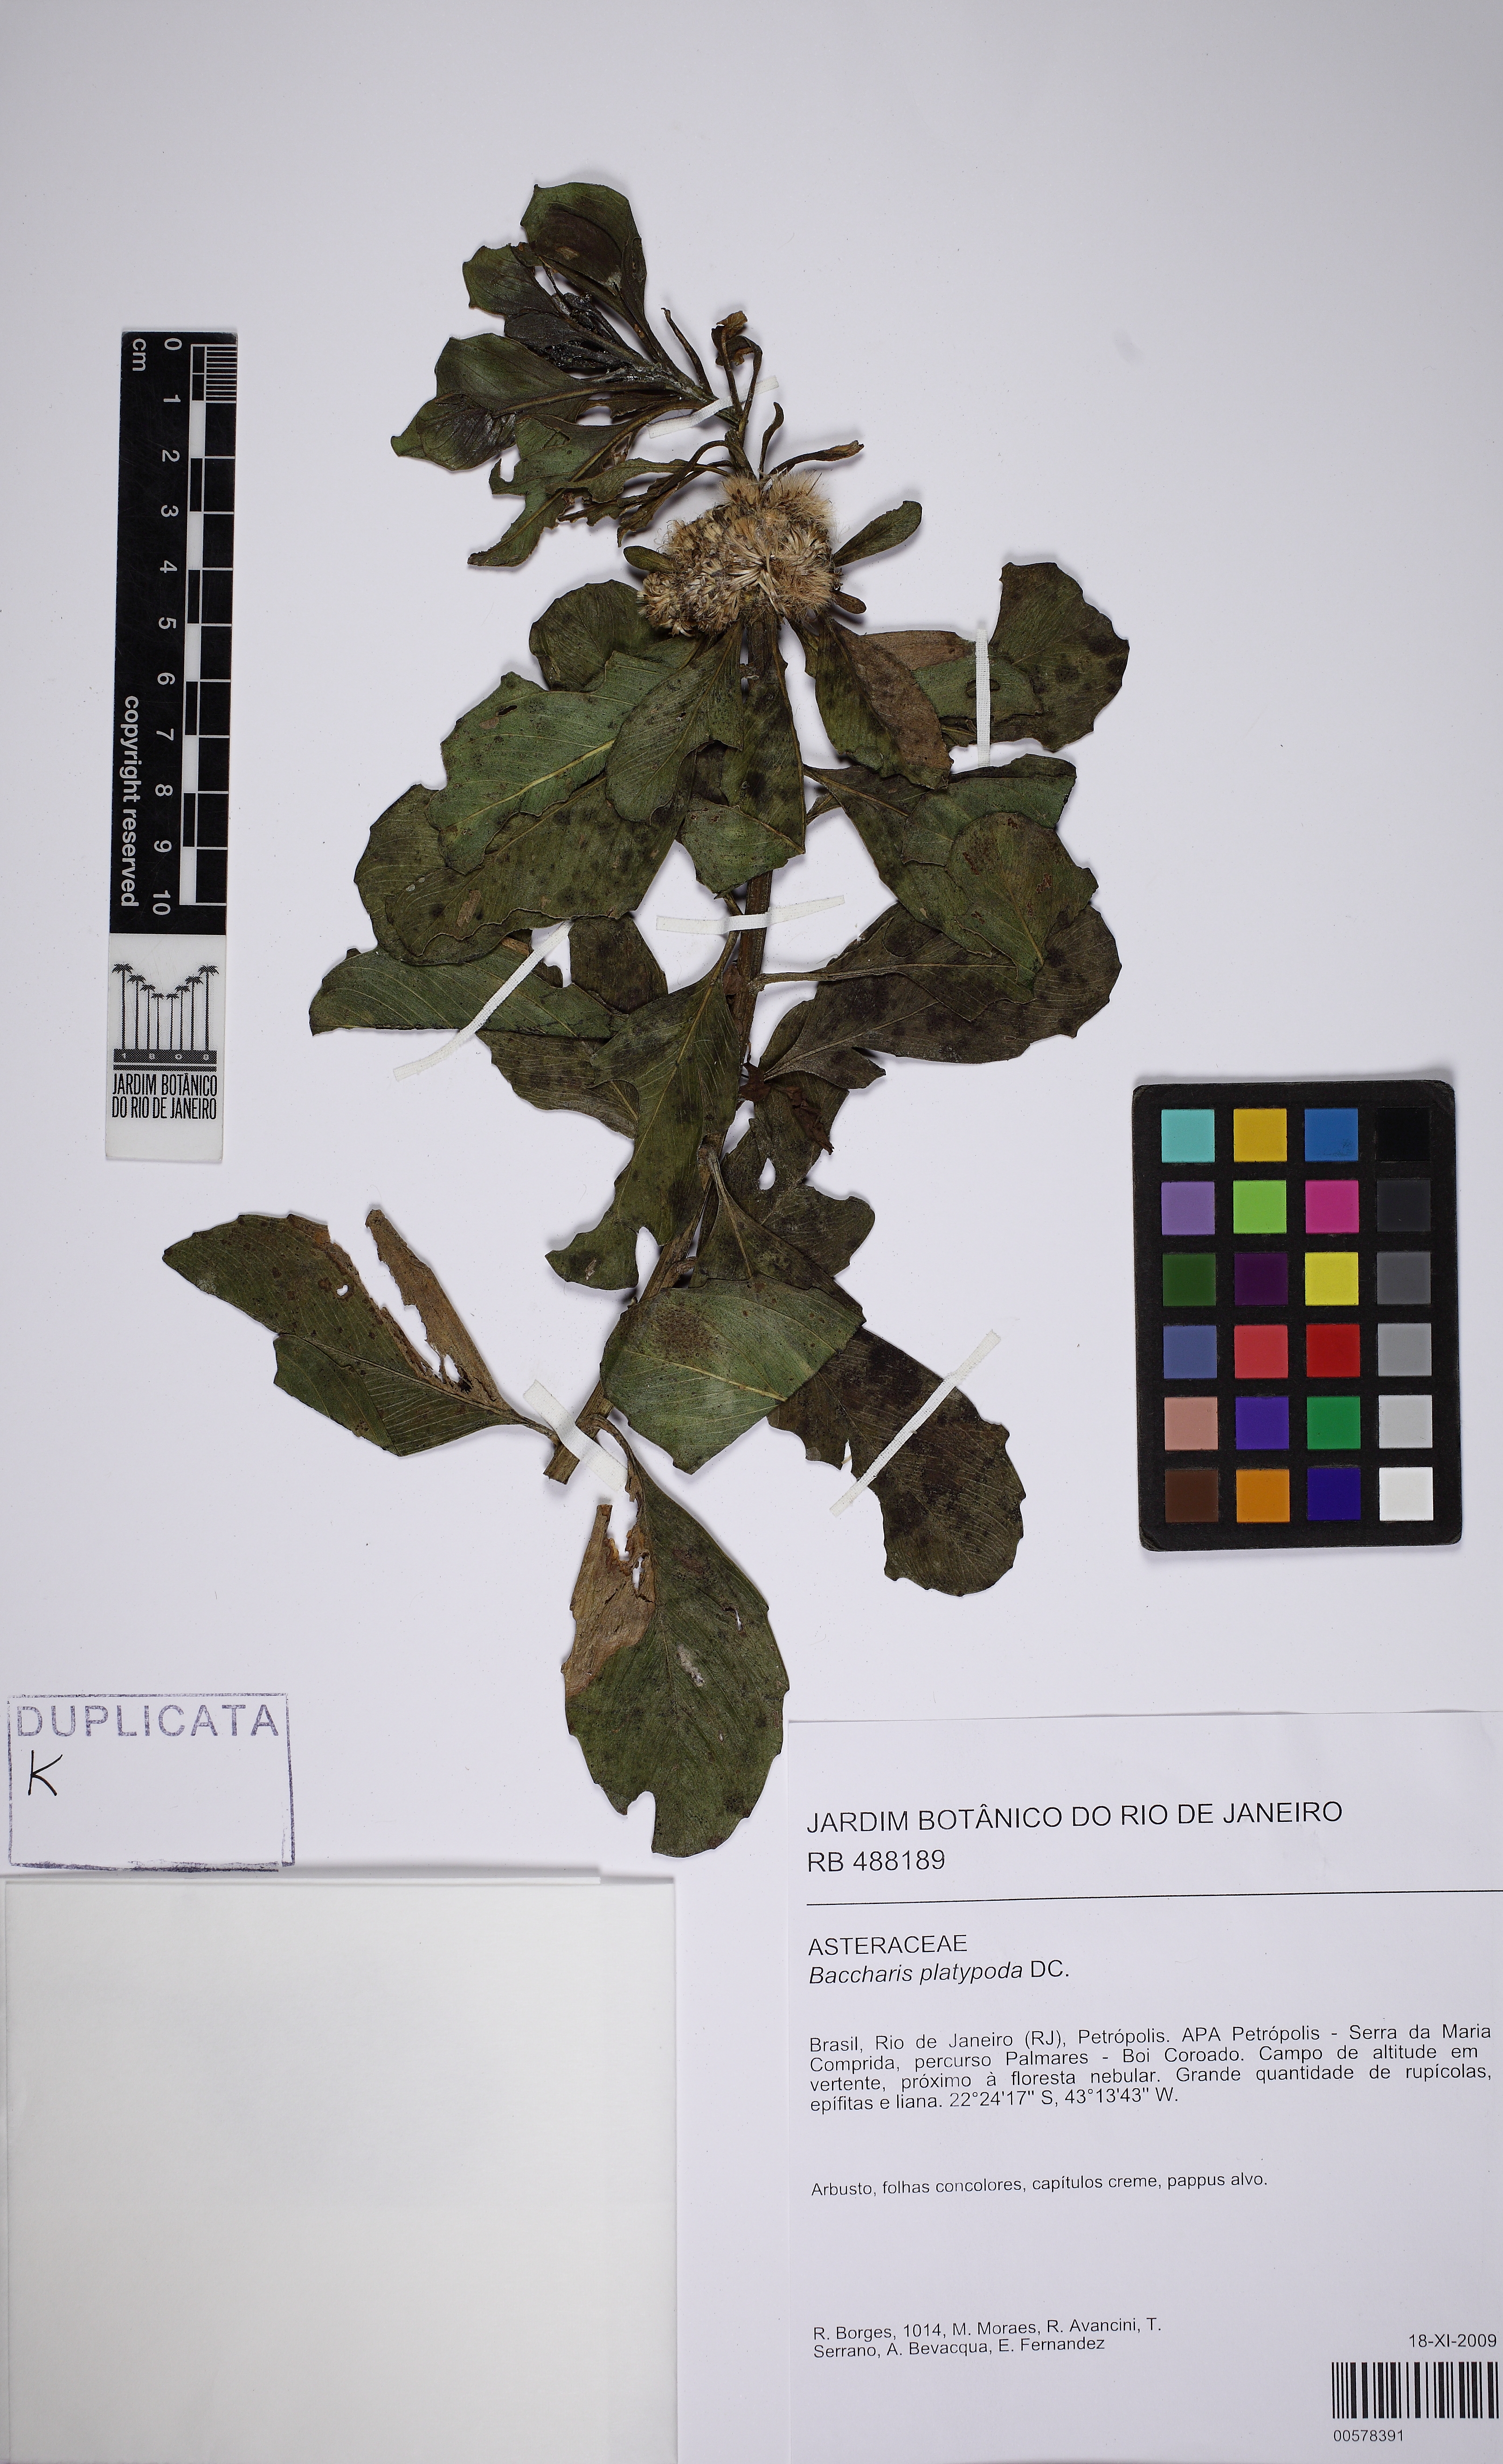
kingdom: Plantae
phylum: Tracheophyta
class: Magnoliopsida
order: Asterales
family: Asteraceae
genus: Baccharis
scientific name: Baccharis platypoda
